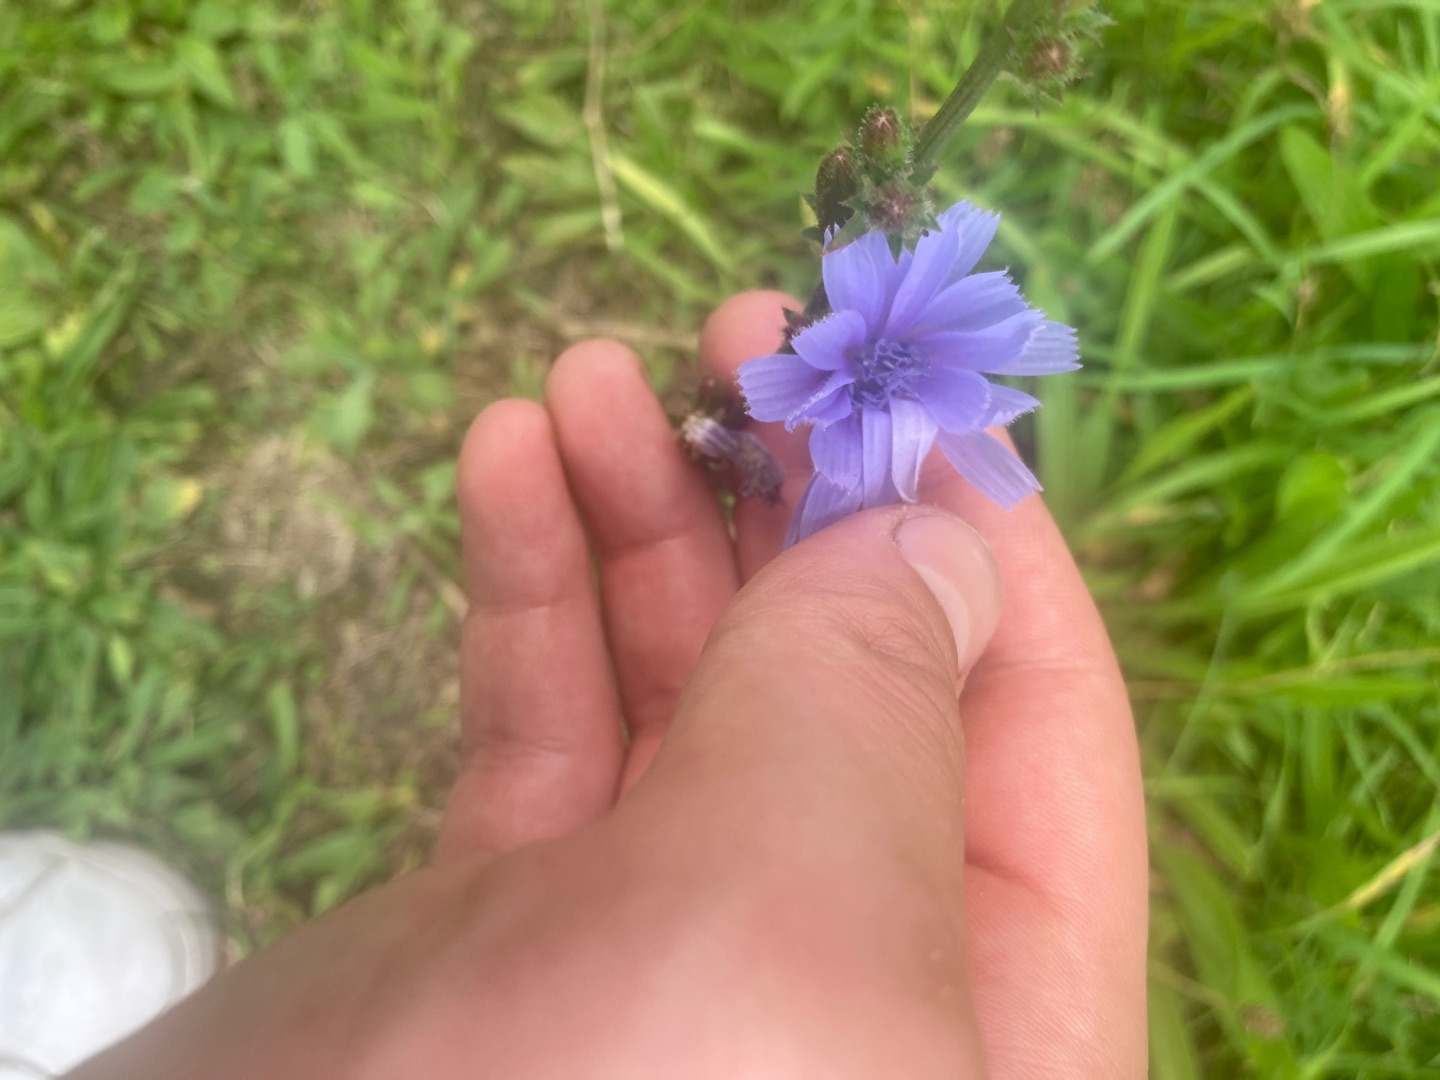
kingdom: Plantae
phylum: Tracheophyta
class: Magnoliopsida
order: Asterales
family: Asteraceae
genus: Cichorium
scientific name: Cichorium intybus
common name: Cikorie
